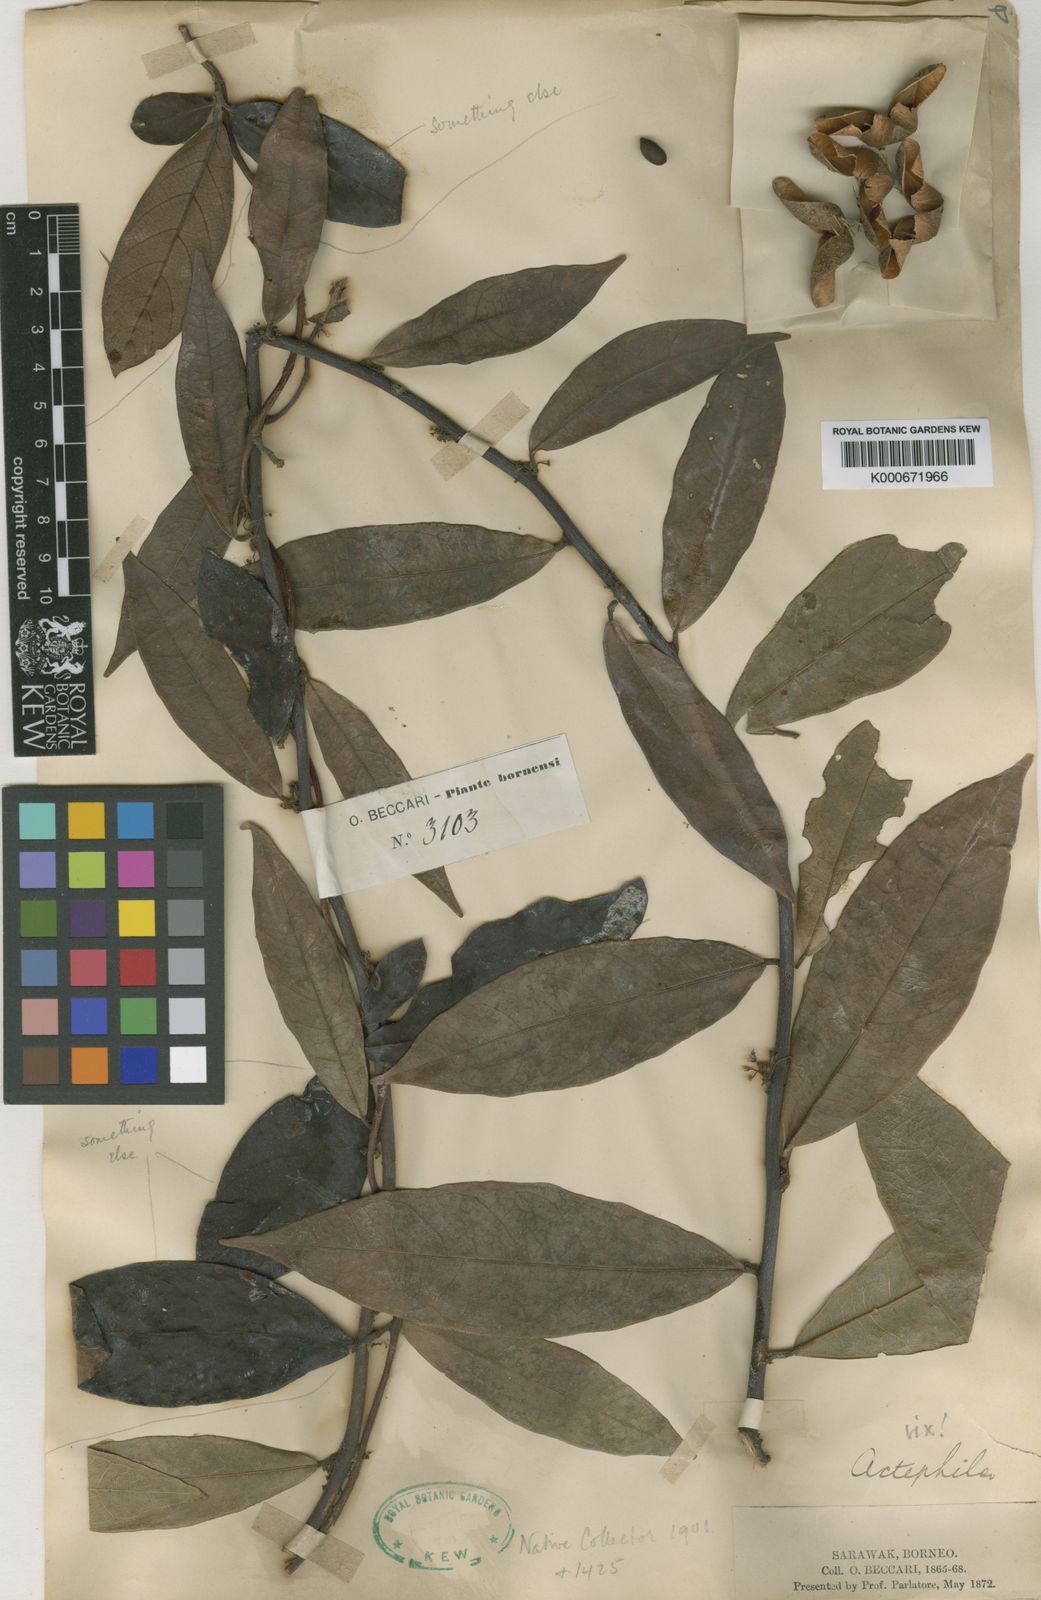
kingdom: Plantae
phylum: Tracheophyta
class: Magnoliopsida
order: Malvales
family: Malvaceae
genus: Byttneria
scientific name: Byttneria beccarii
